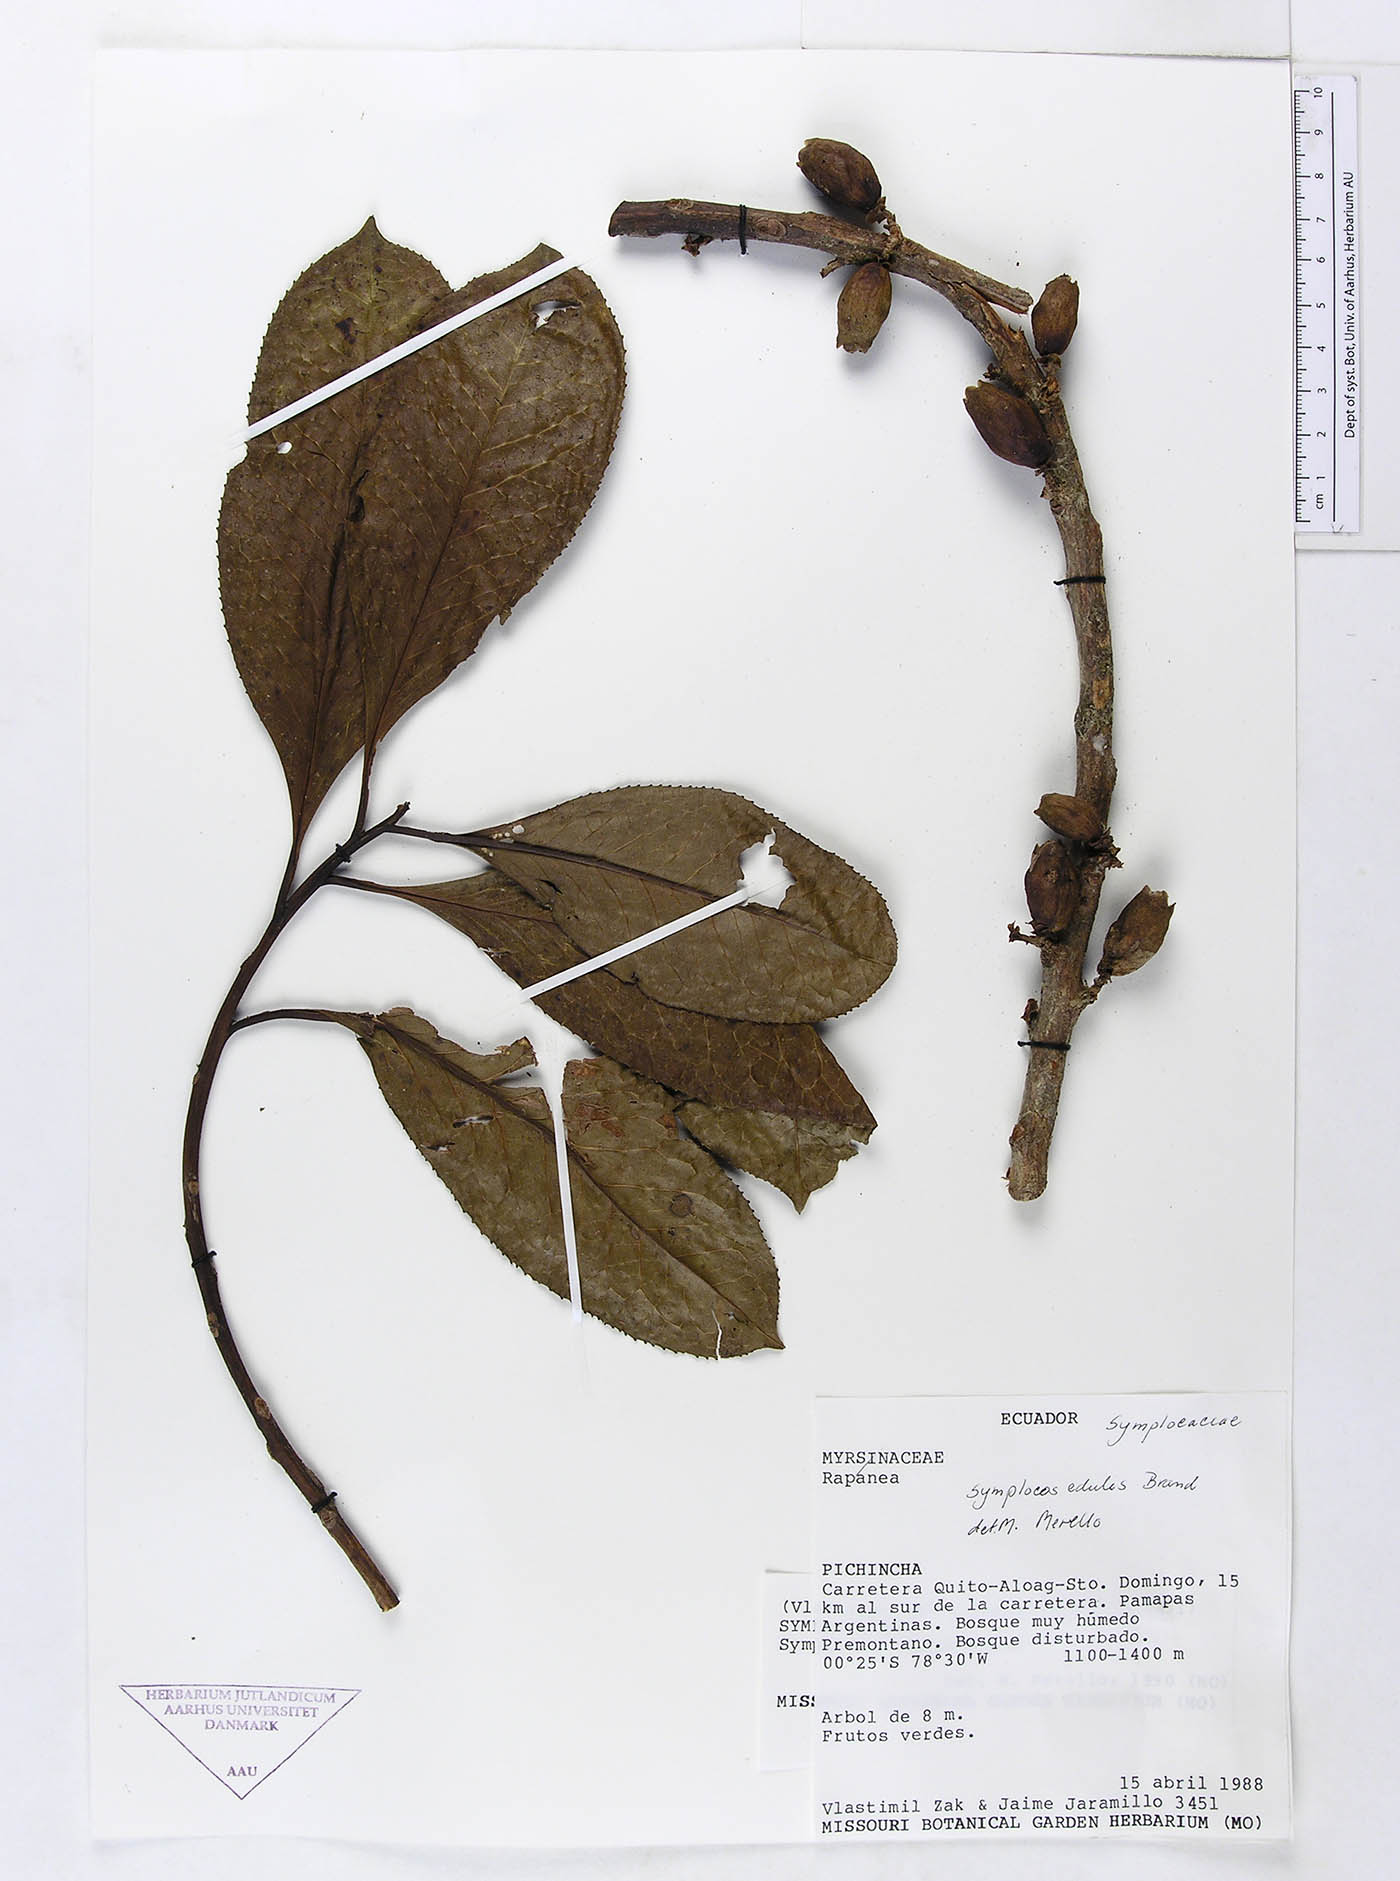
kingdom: Plantae
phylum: Tracheophyta
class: Magnoliopsida
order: Ericales
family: Symplocaceae
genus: Symplocos
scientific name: Symplocos fuliginosa
